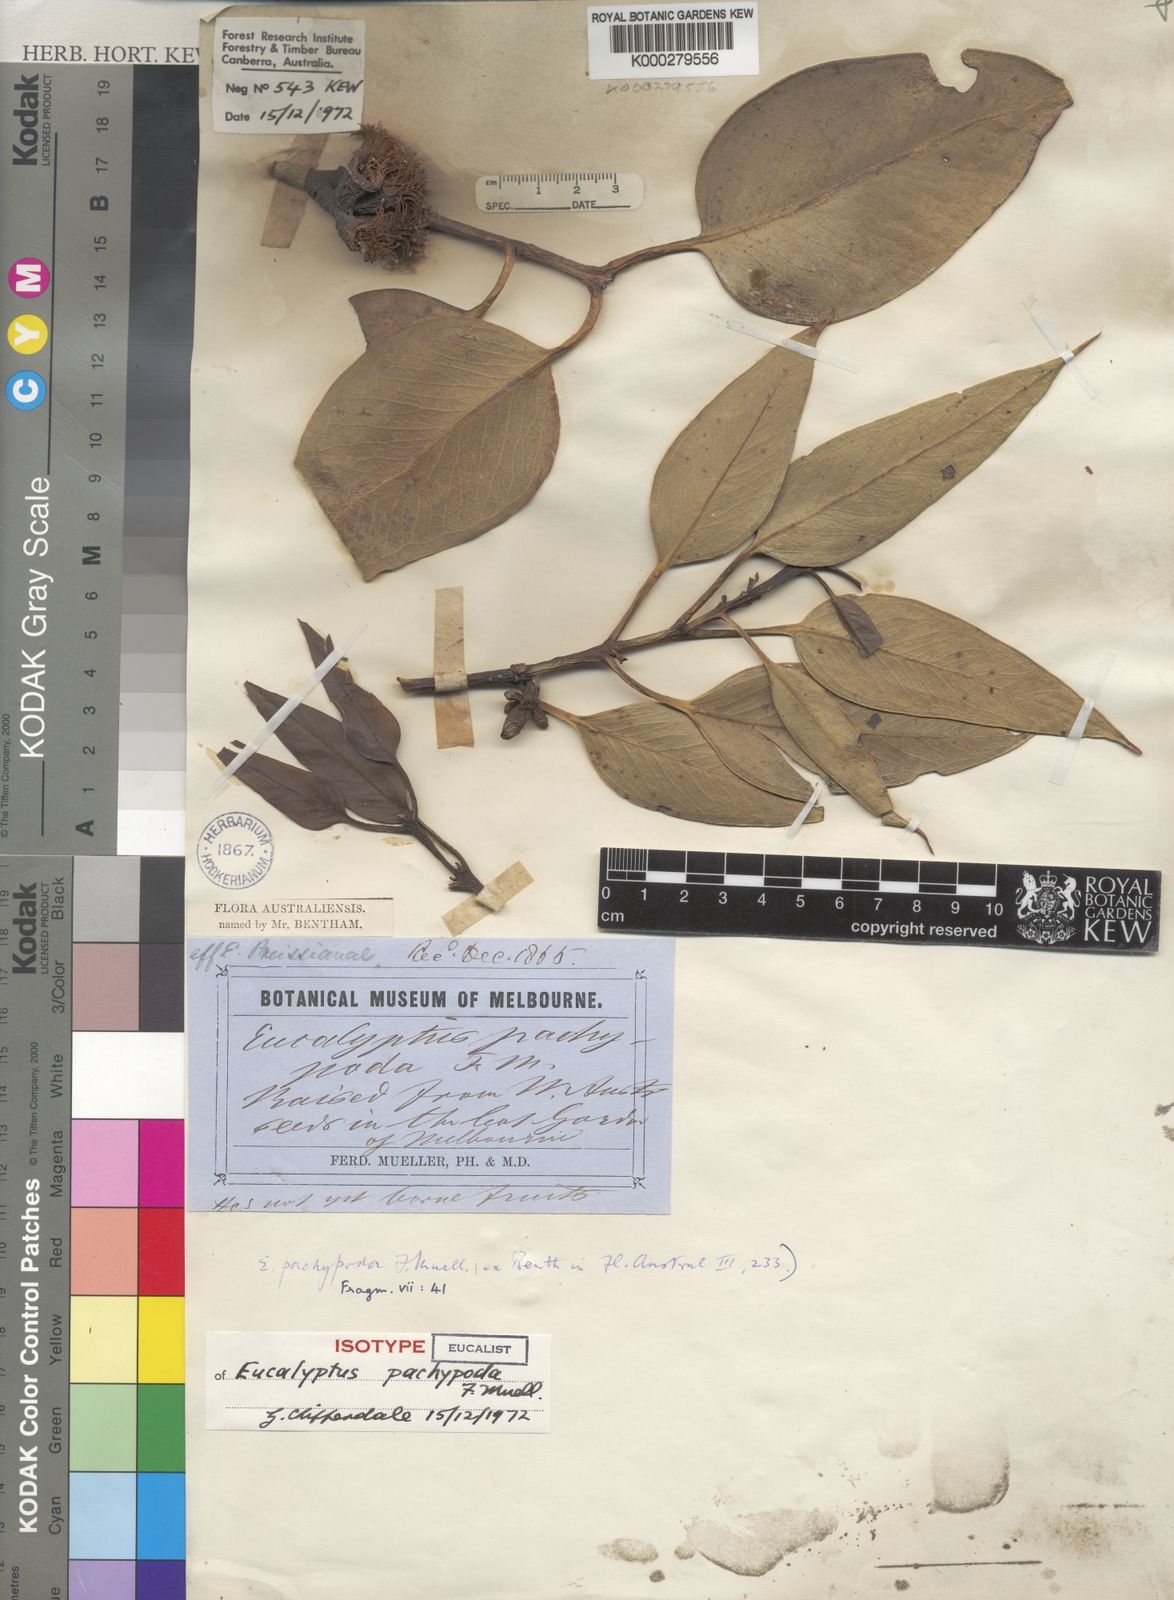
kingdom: Plantae
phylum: Tracheophyta
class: Magnoliopsida
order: Myrtales
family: Myrtaceae
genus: Eucalyptus
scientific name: Eucalyptus grossa
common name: Coarse-leaved mallee
